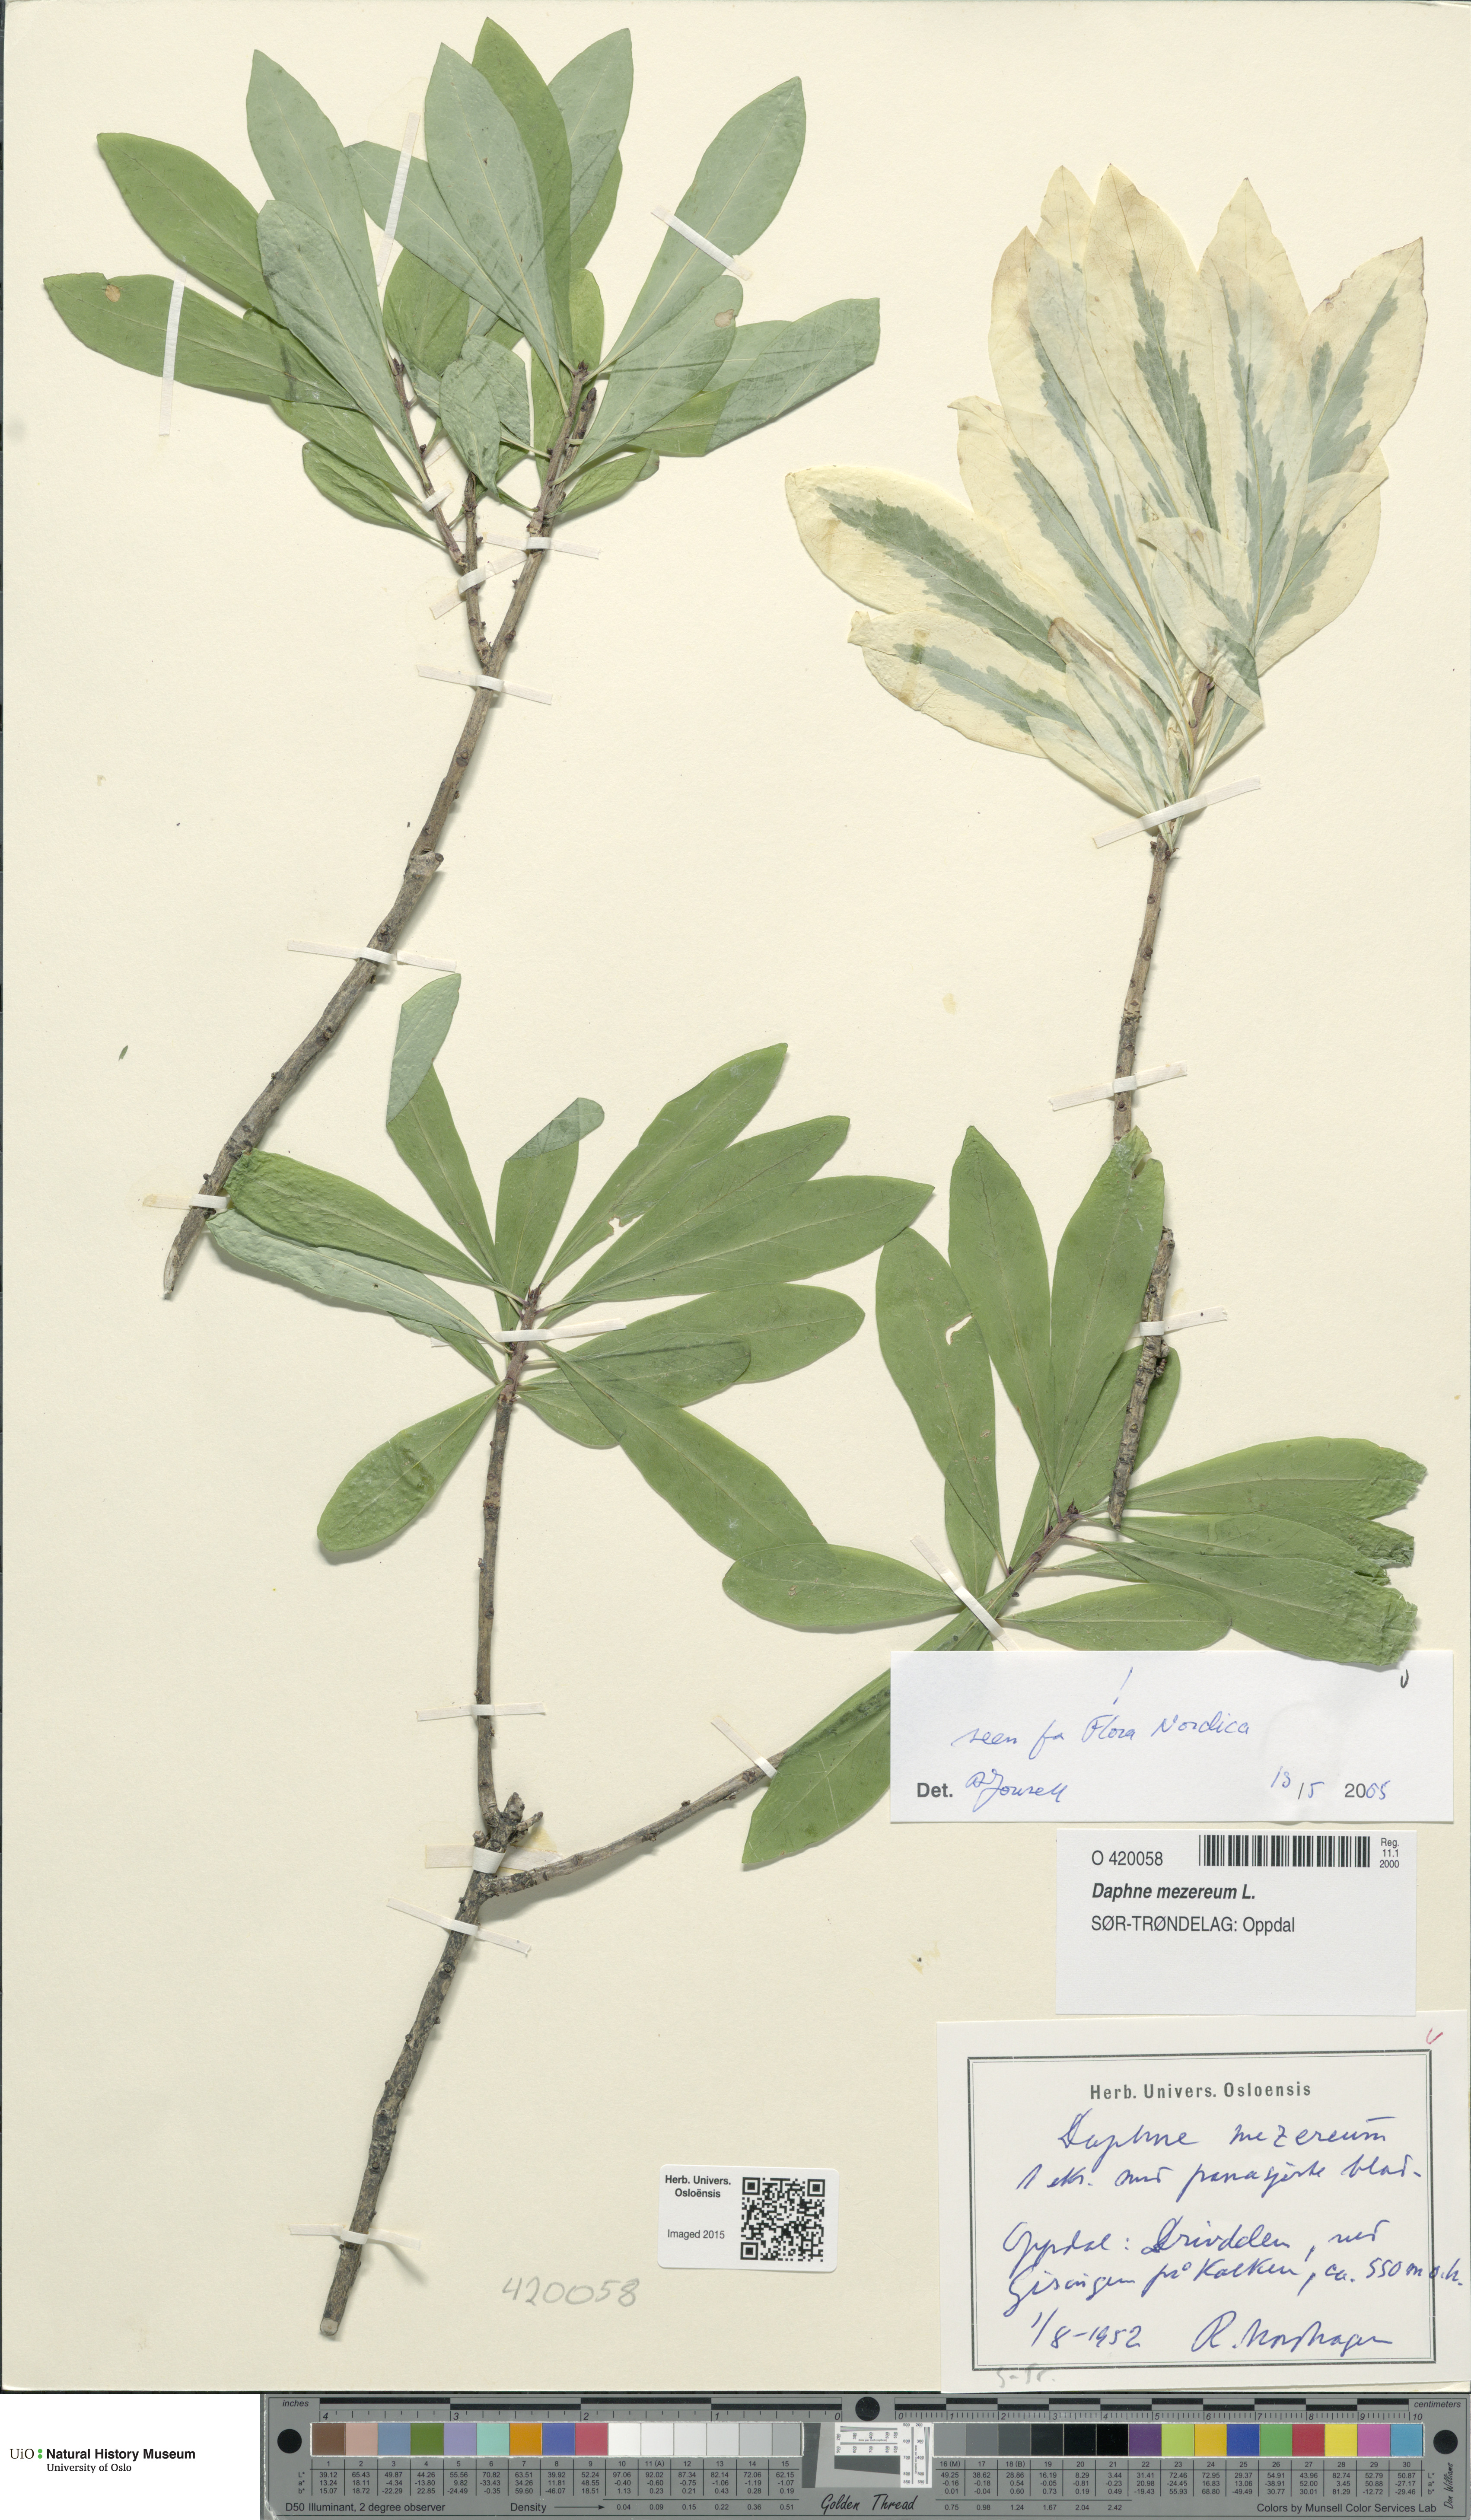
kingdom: Plantae
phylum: Tracheophyta
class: Magnoliopsida
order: Malvales
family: Thymelaeaceae
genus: Daphne
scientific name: Daphne mezereum
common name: Mezereon
